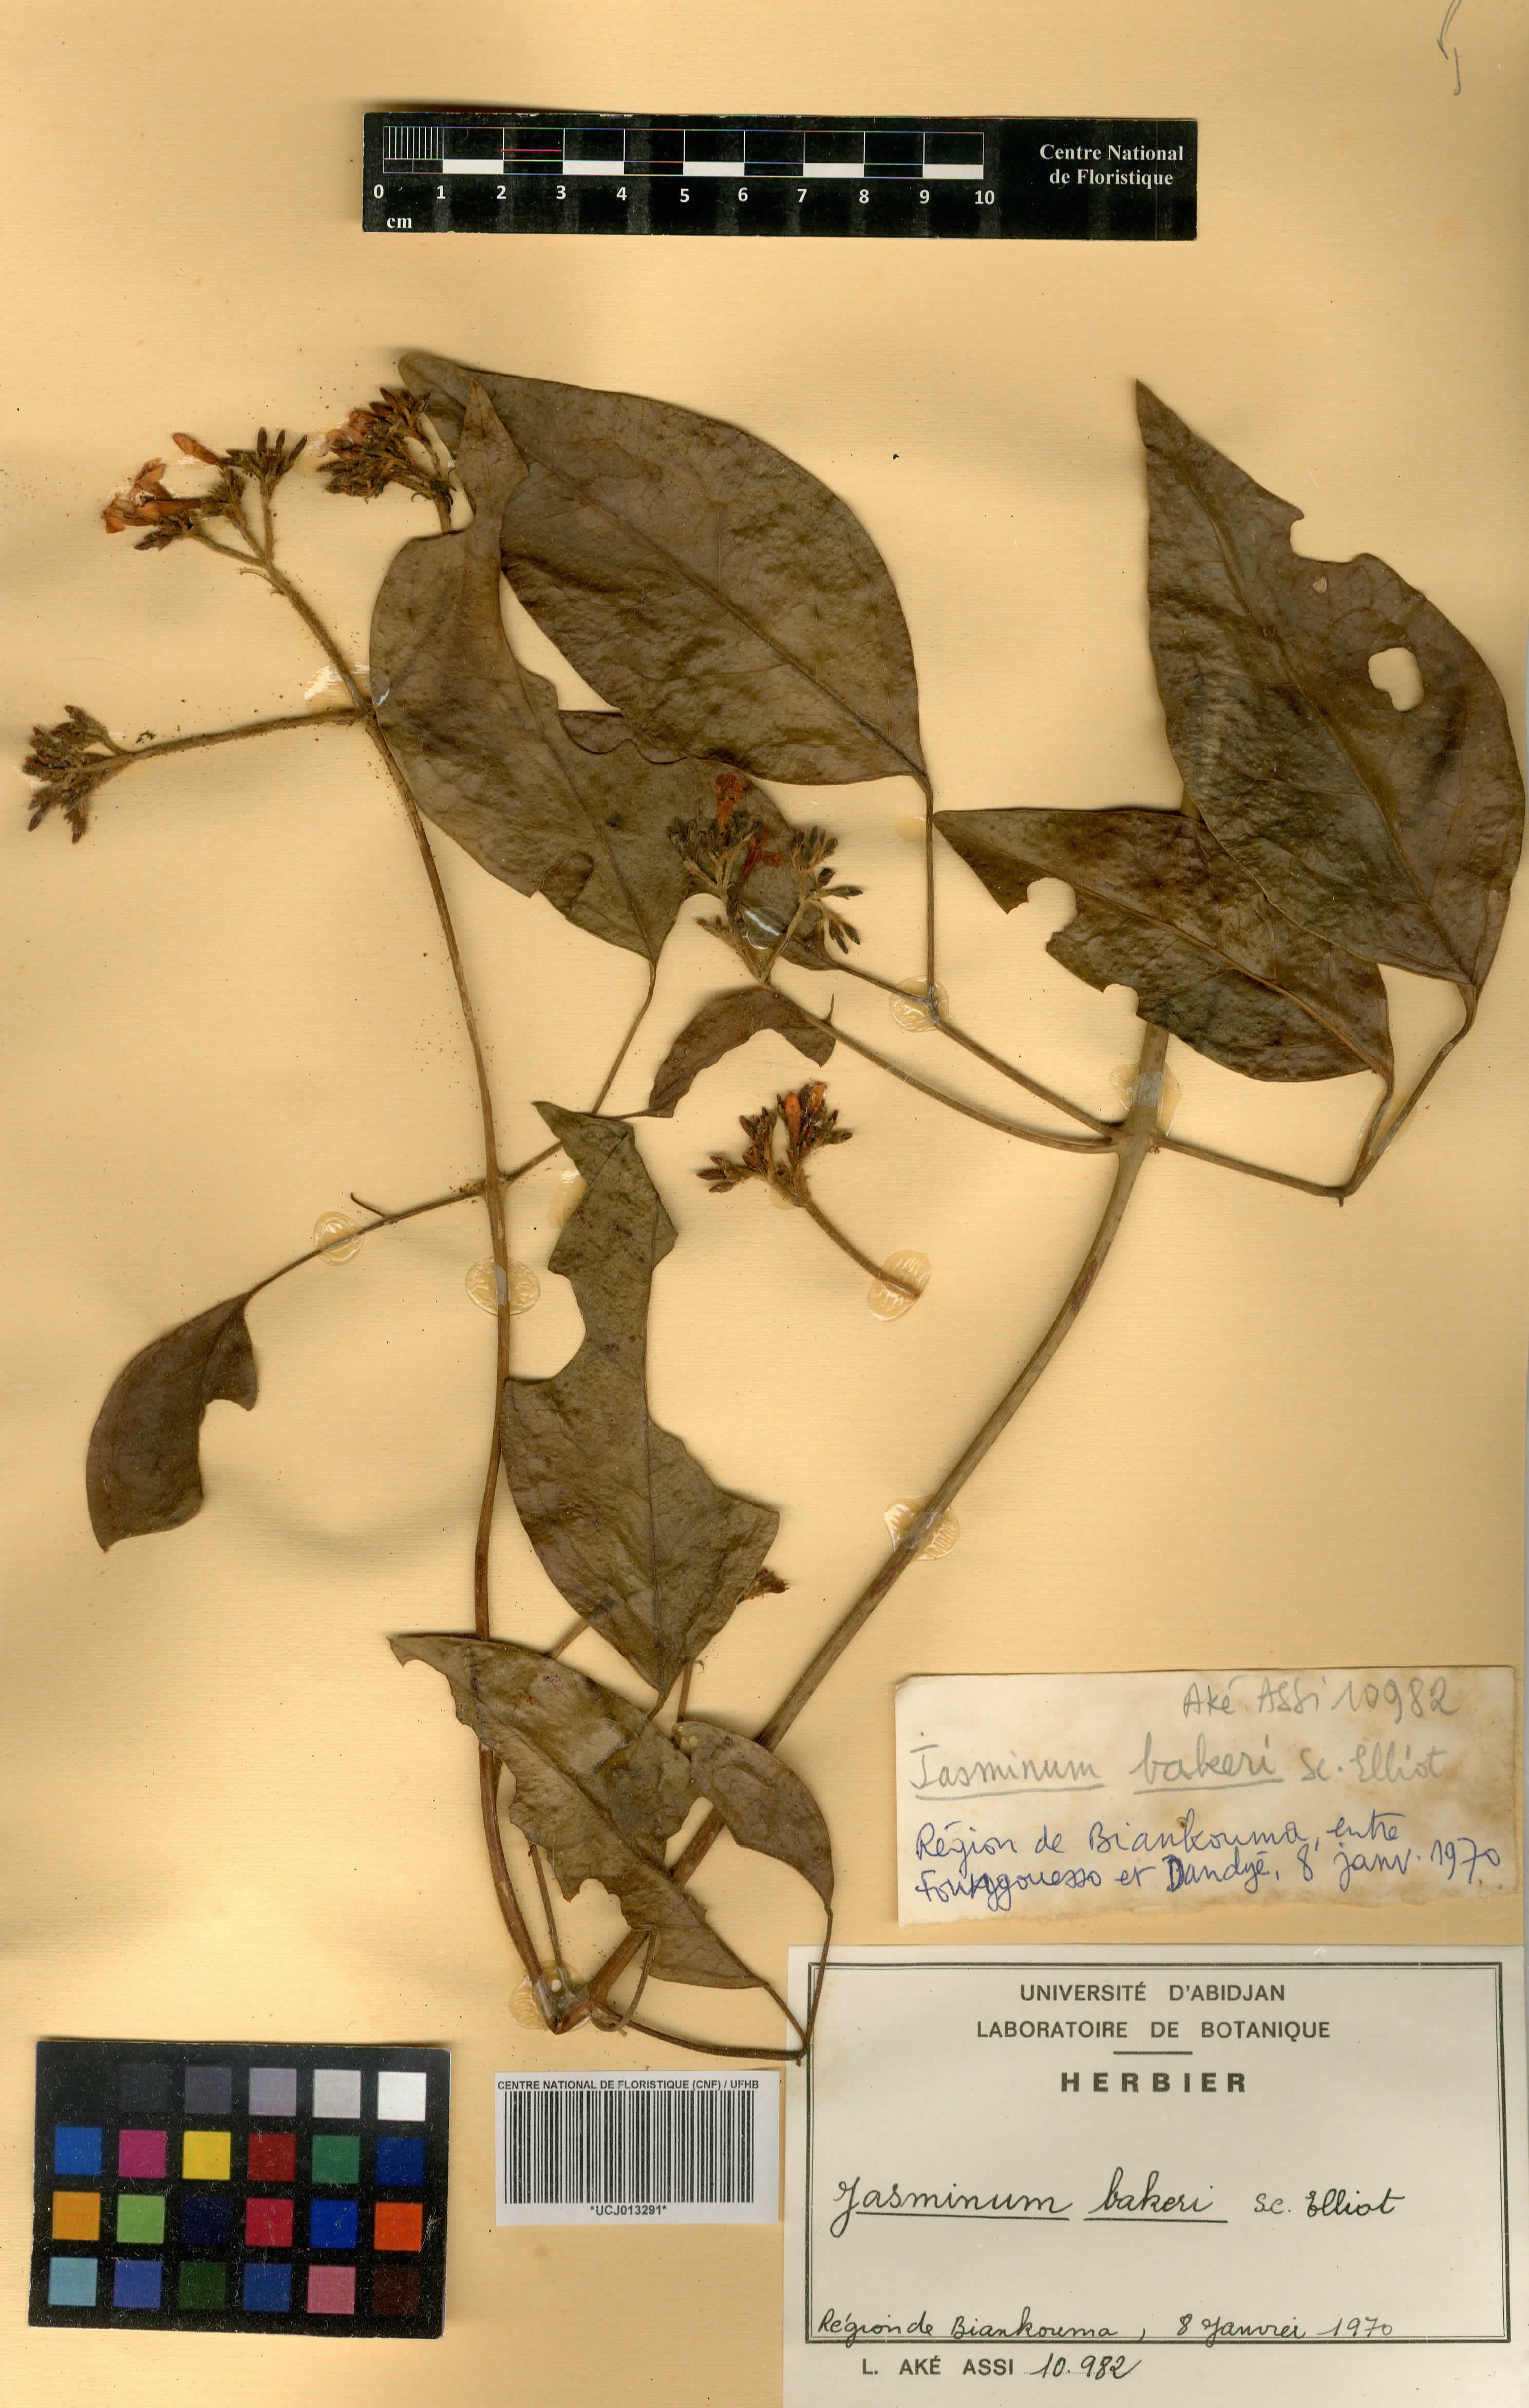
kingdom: Plantae
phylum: Tracheophyta
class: Magnoliopsida
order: Lamiales
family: Oleaceae
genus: Jasminum
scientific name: Jasminum bakeri
